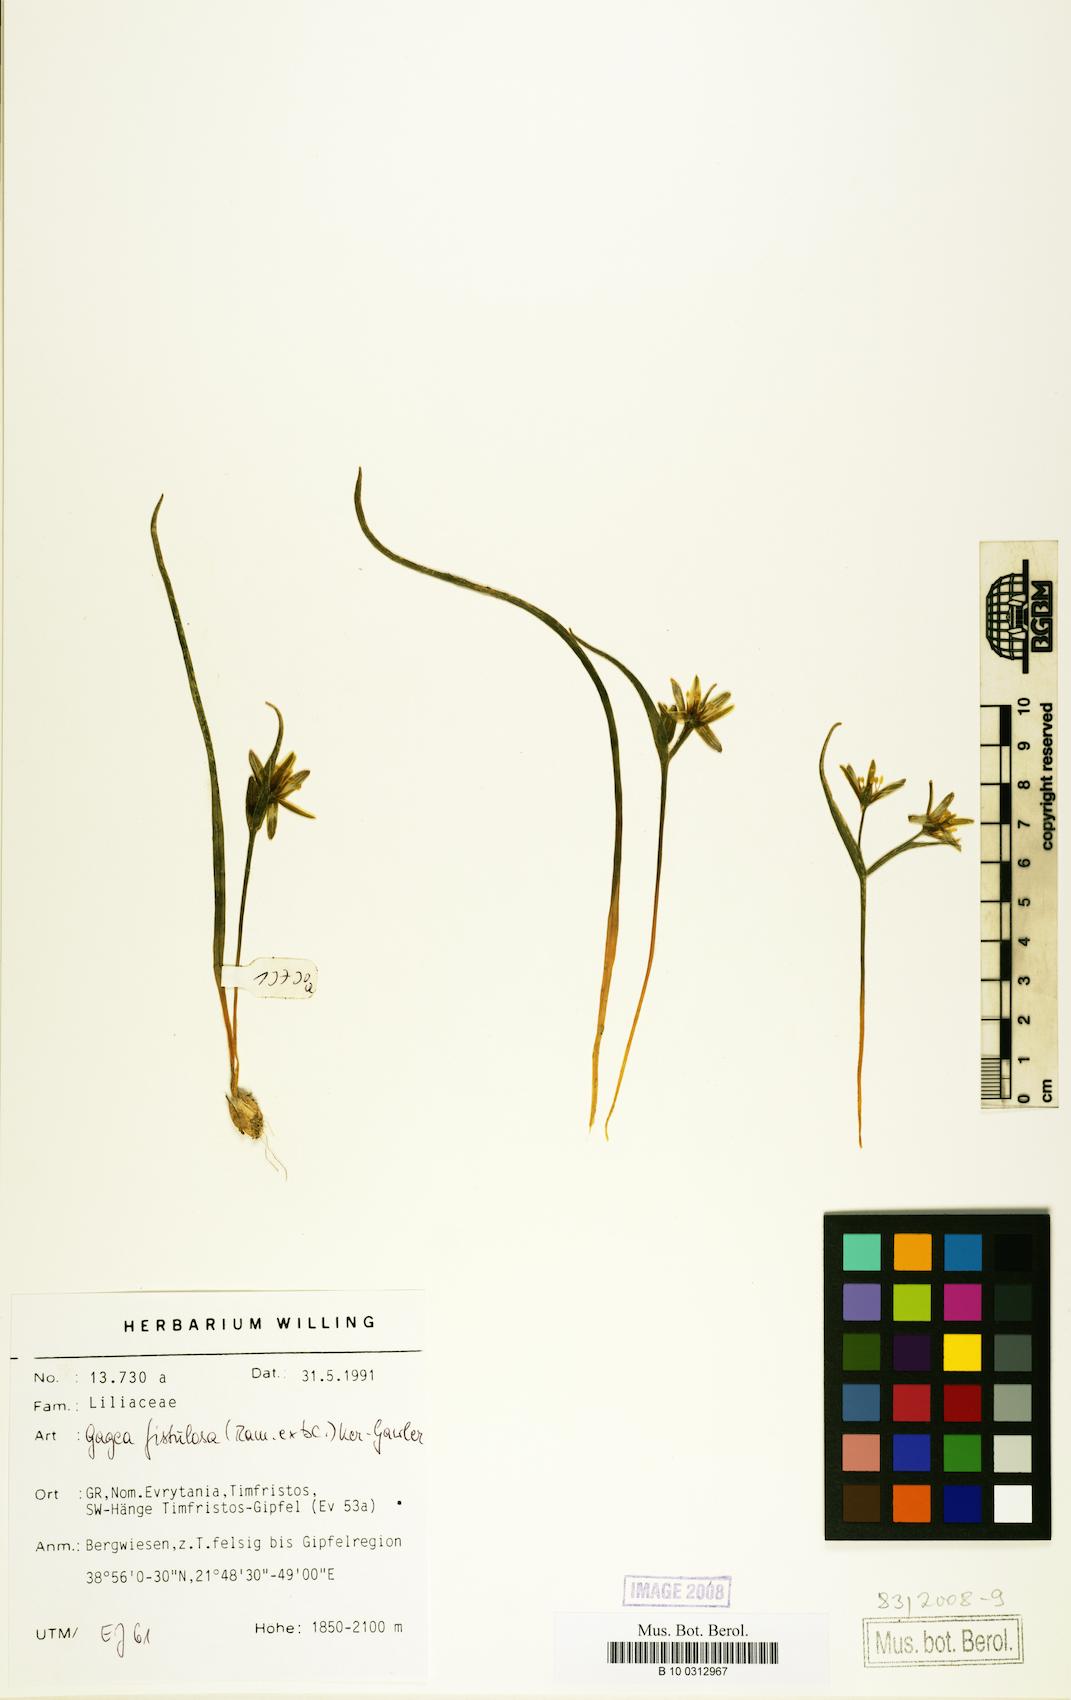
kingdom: Plantae
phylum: Tracheophyta
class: Liliopsida
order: Liliales
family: Liliaceae
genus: Gagea
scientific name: Gagea bohemica
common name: Early star-of-bethlehem
